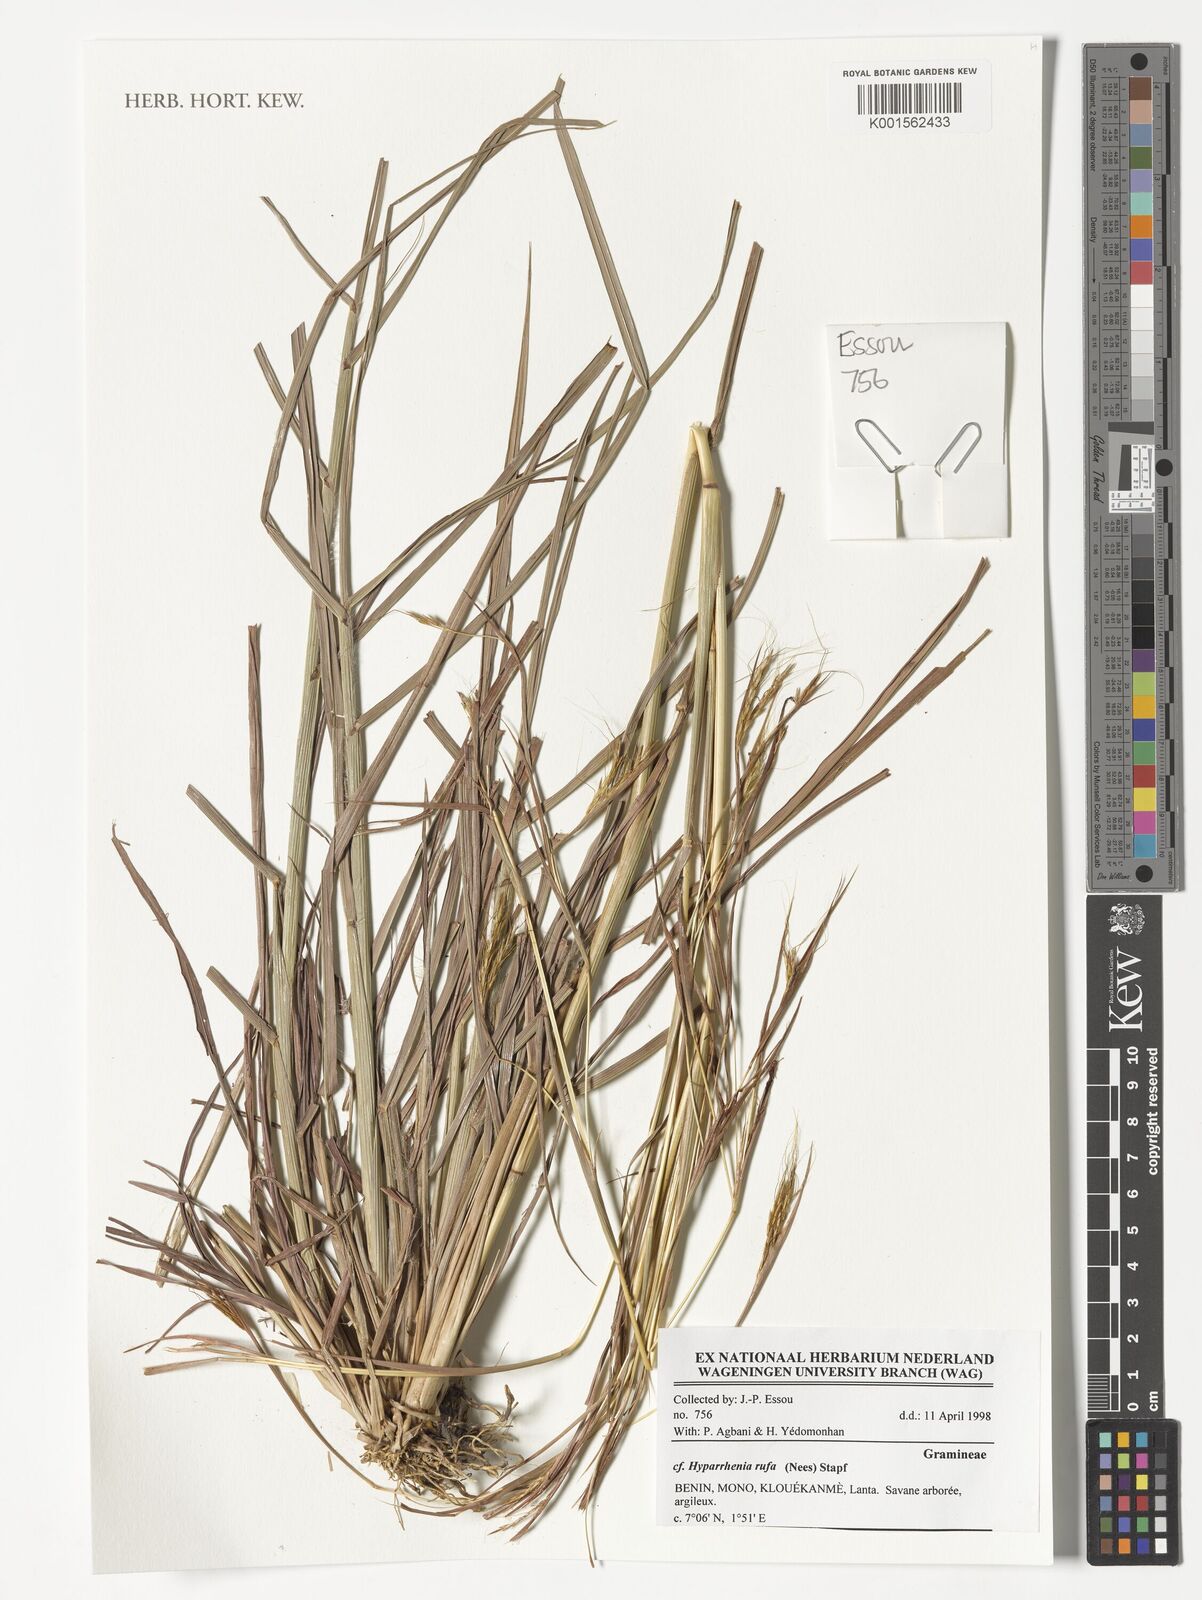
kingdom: Plantae
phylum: Tracheophyta
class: Liliopsida
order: Poales
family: Poaceae
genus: Hyparrhenia
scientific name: Hyparrhenia rufa
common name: Jaraguagrass
